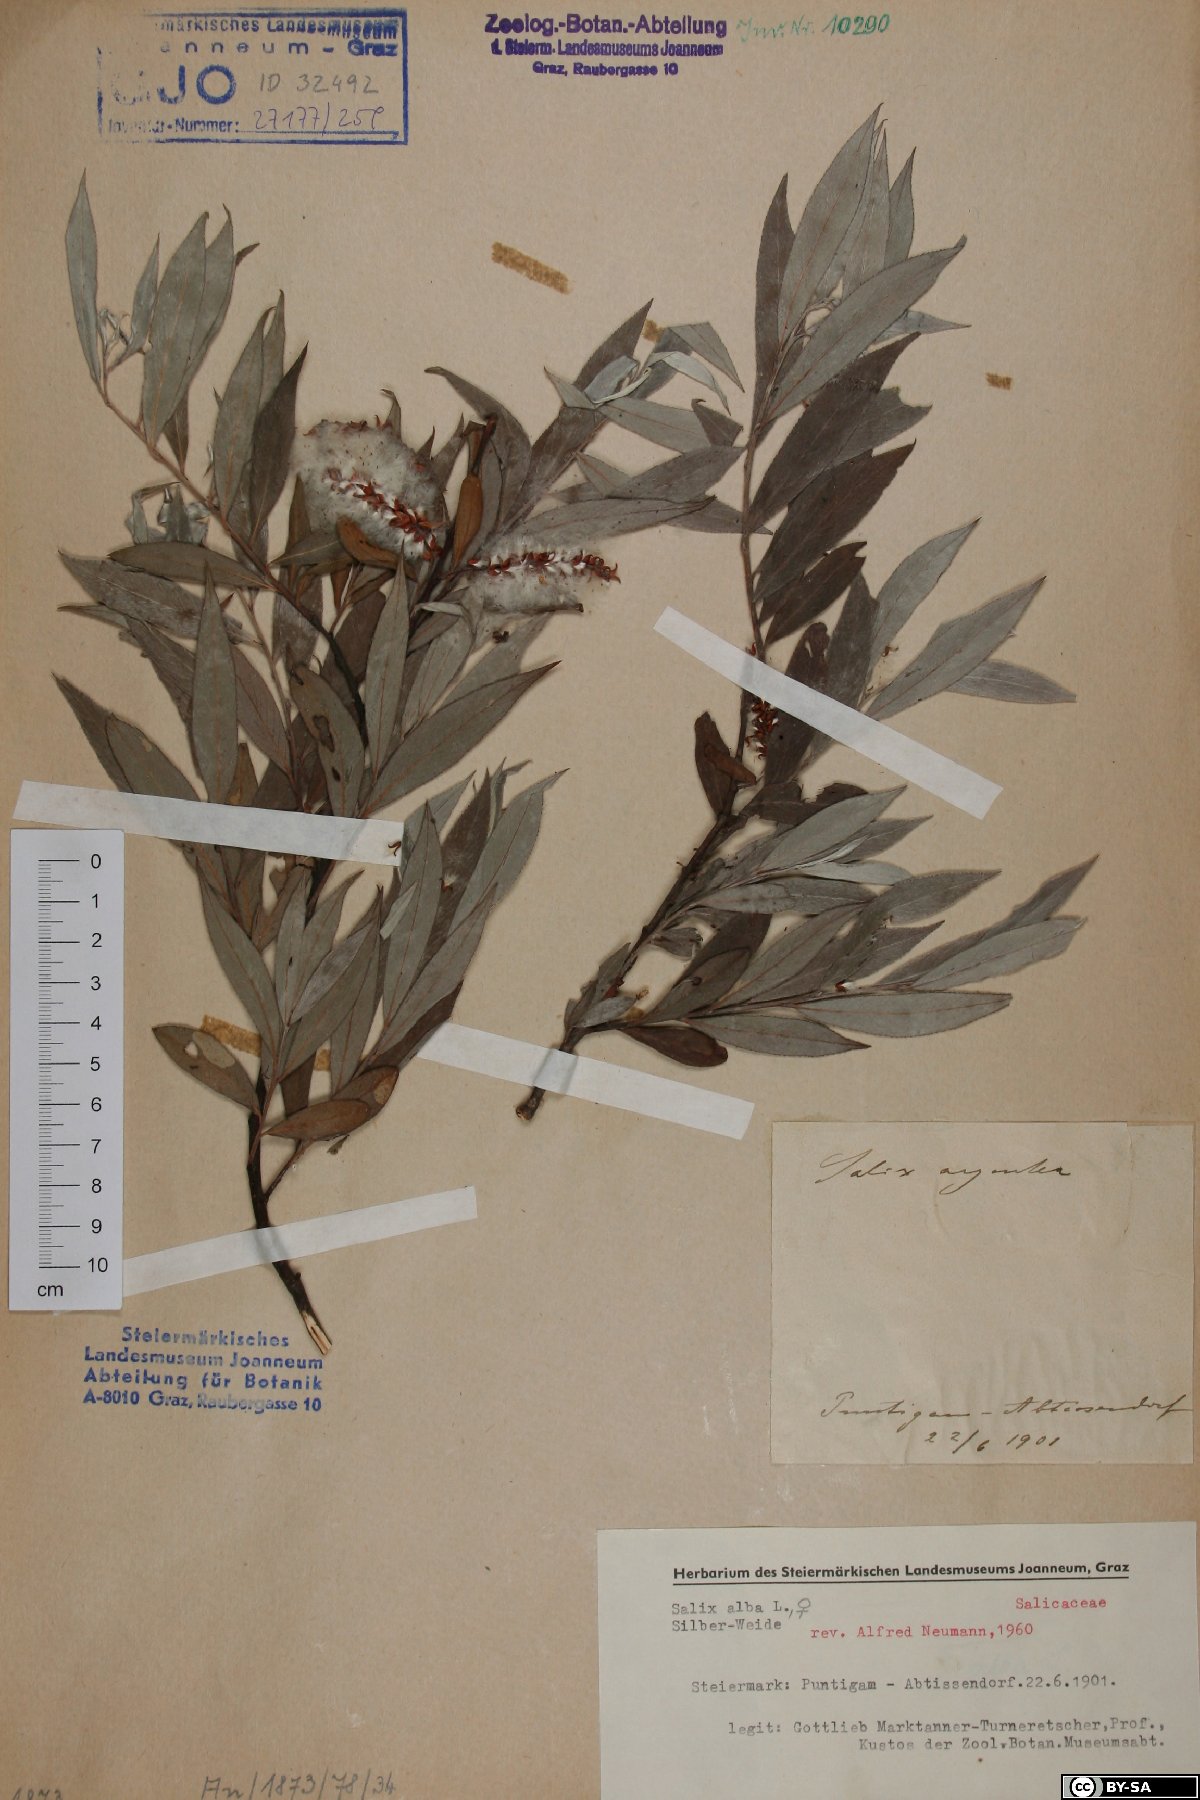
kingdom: Plantae
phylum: Tracheophyta
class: Magnoliopsida
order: Malpighiales
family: Salicaceae
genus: Salix
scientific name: Salix alba
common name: White willow
